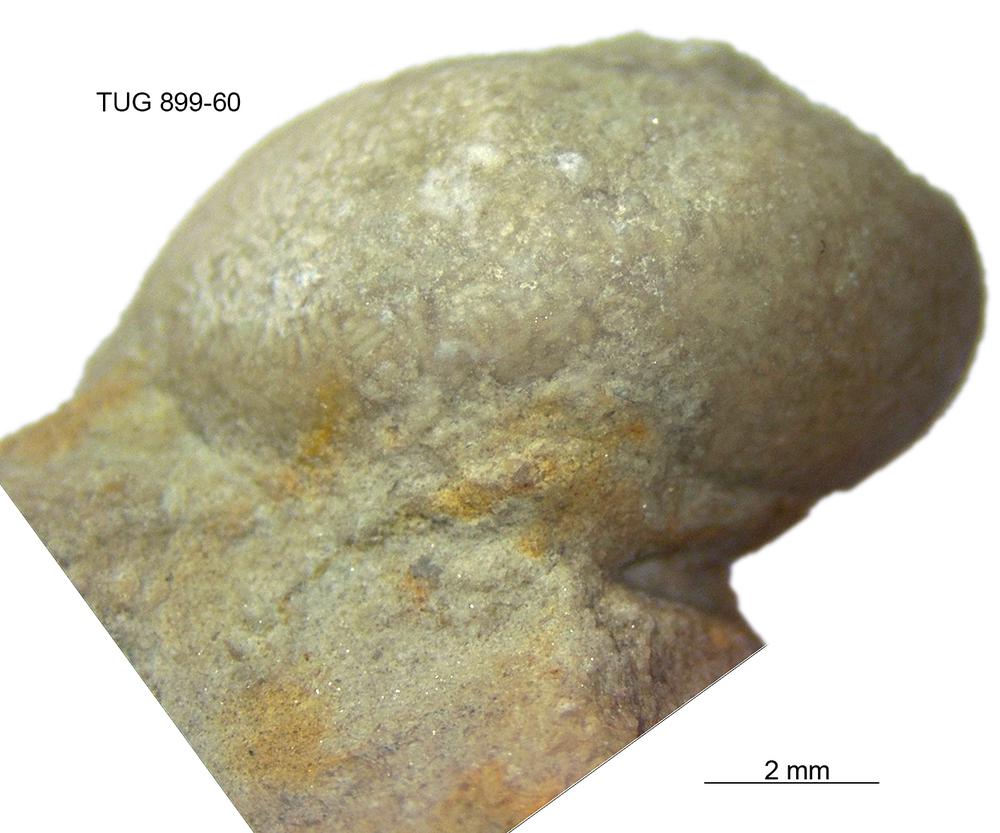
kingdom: Animalia
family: Coprulidae
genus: Coprulus
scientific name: Coprulus
